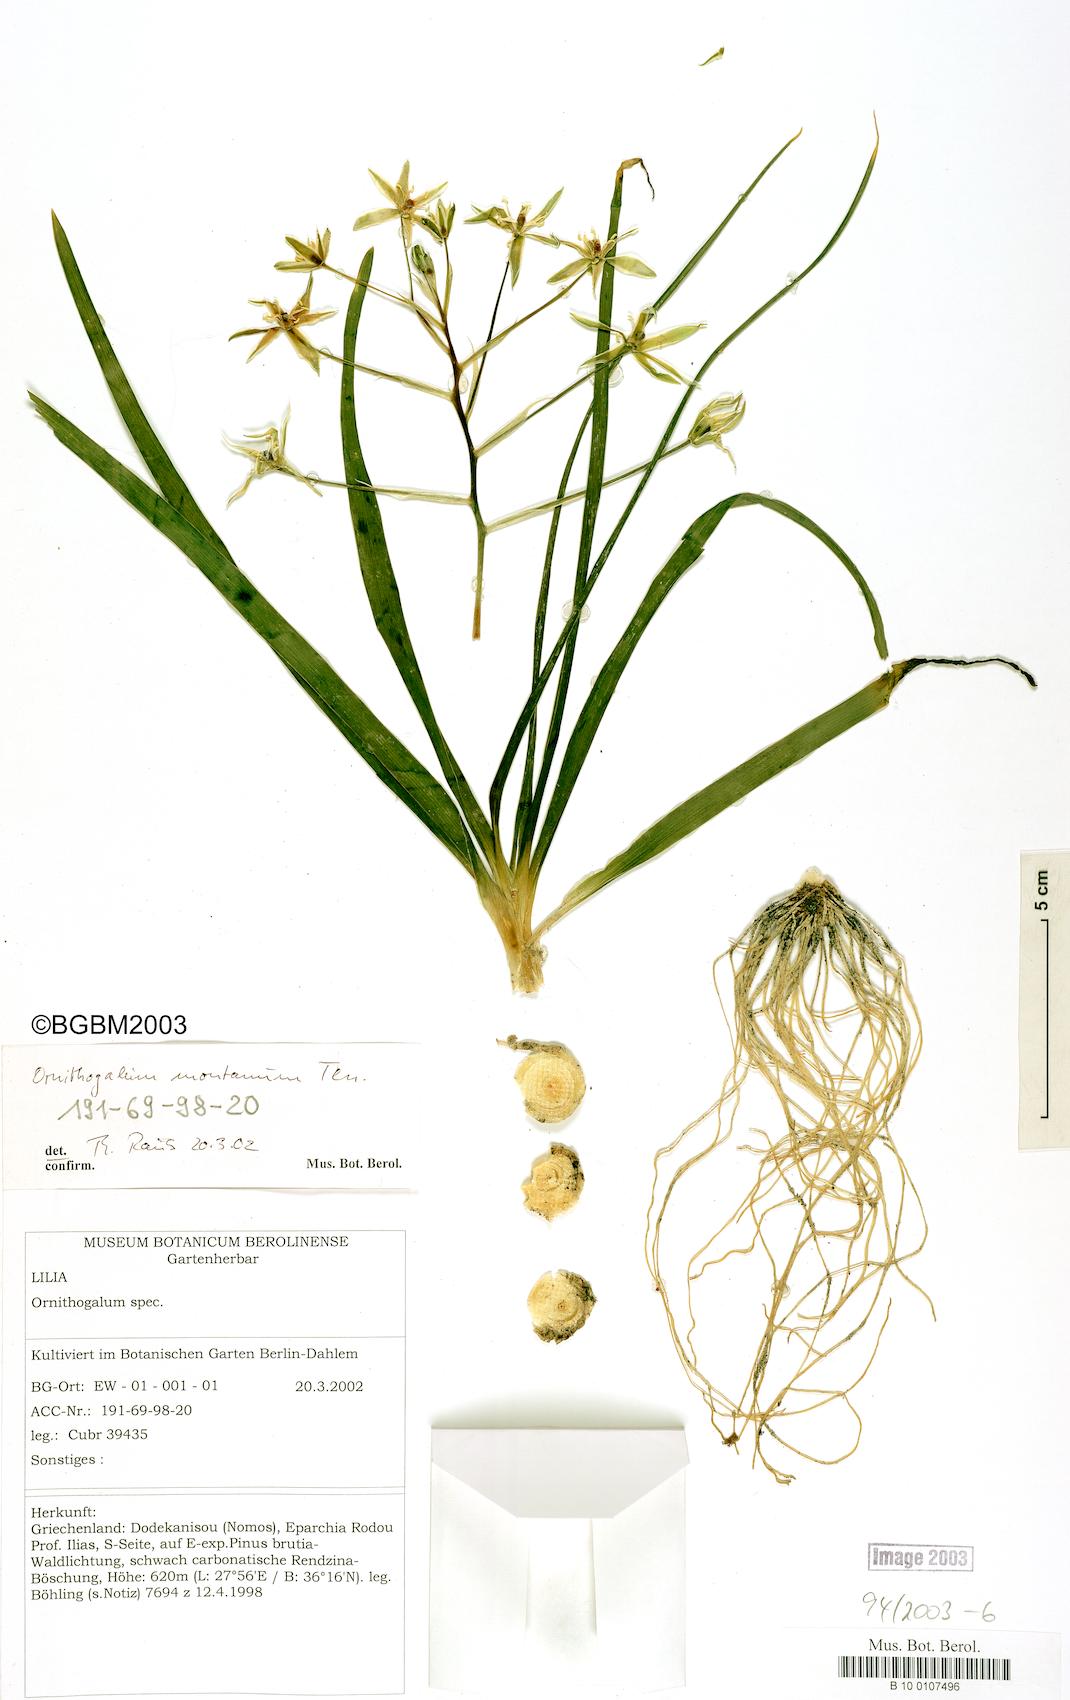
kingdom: Plantae
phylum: Tracheophyta
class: Liliopsida
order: Asparagales
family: Asparagaceae
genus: Ornithogalum
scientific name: Ornithogalum montanum
